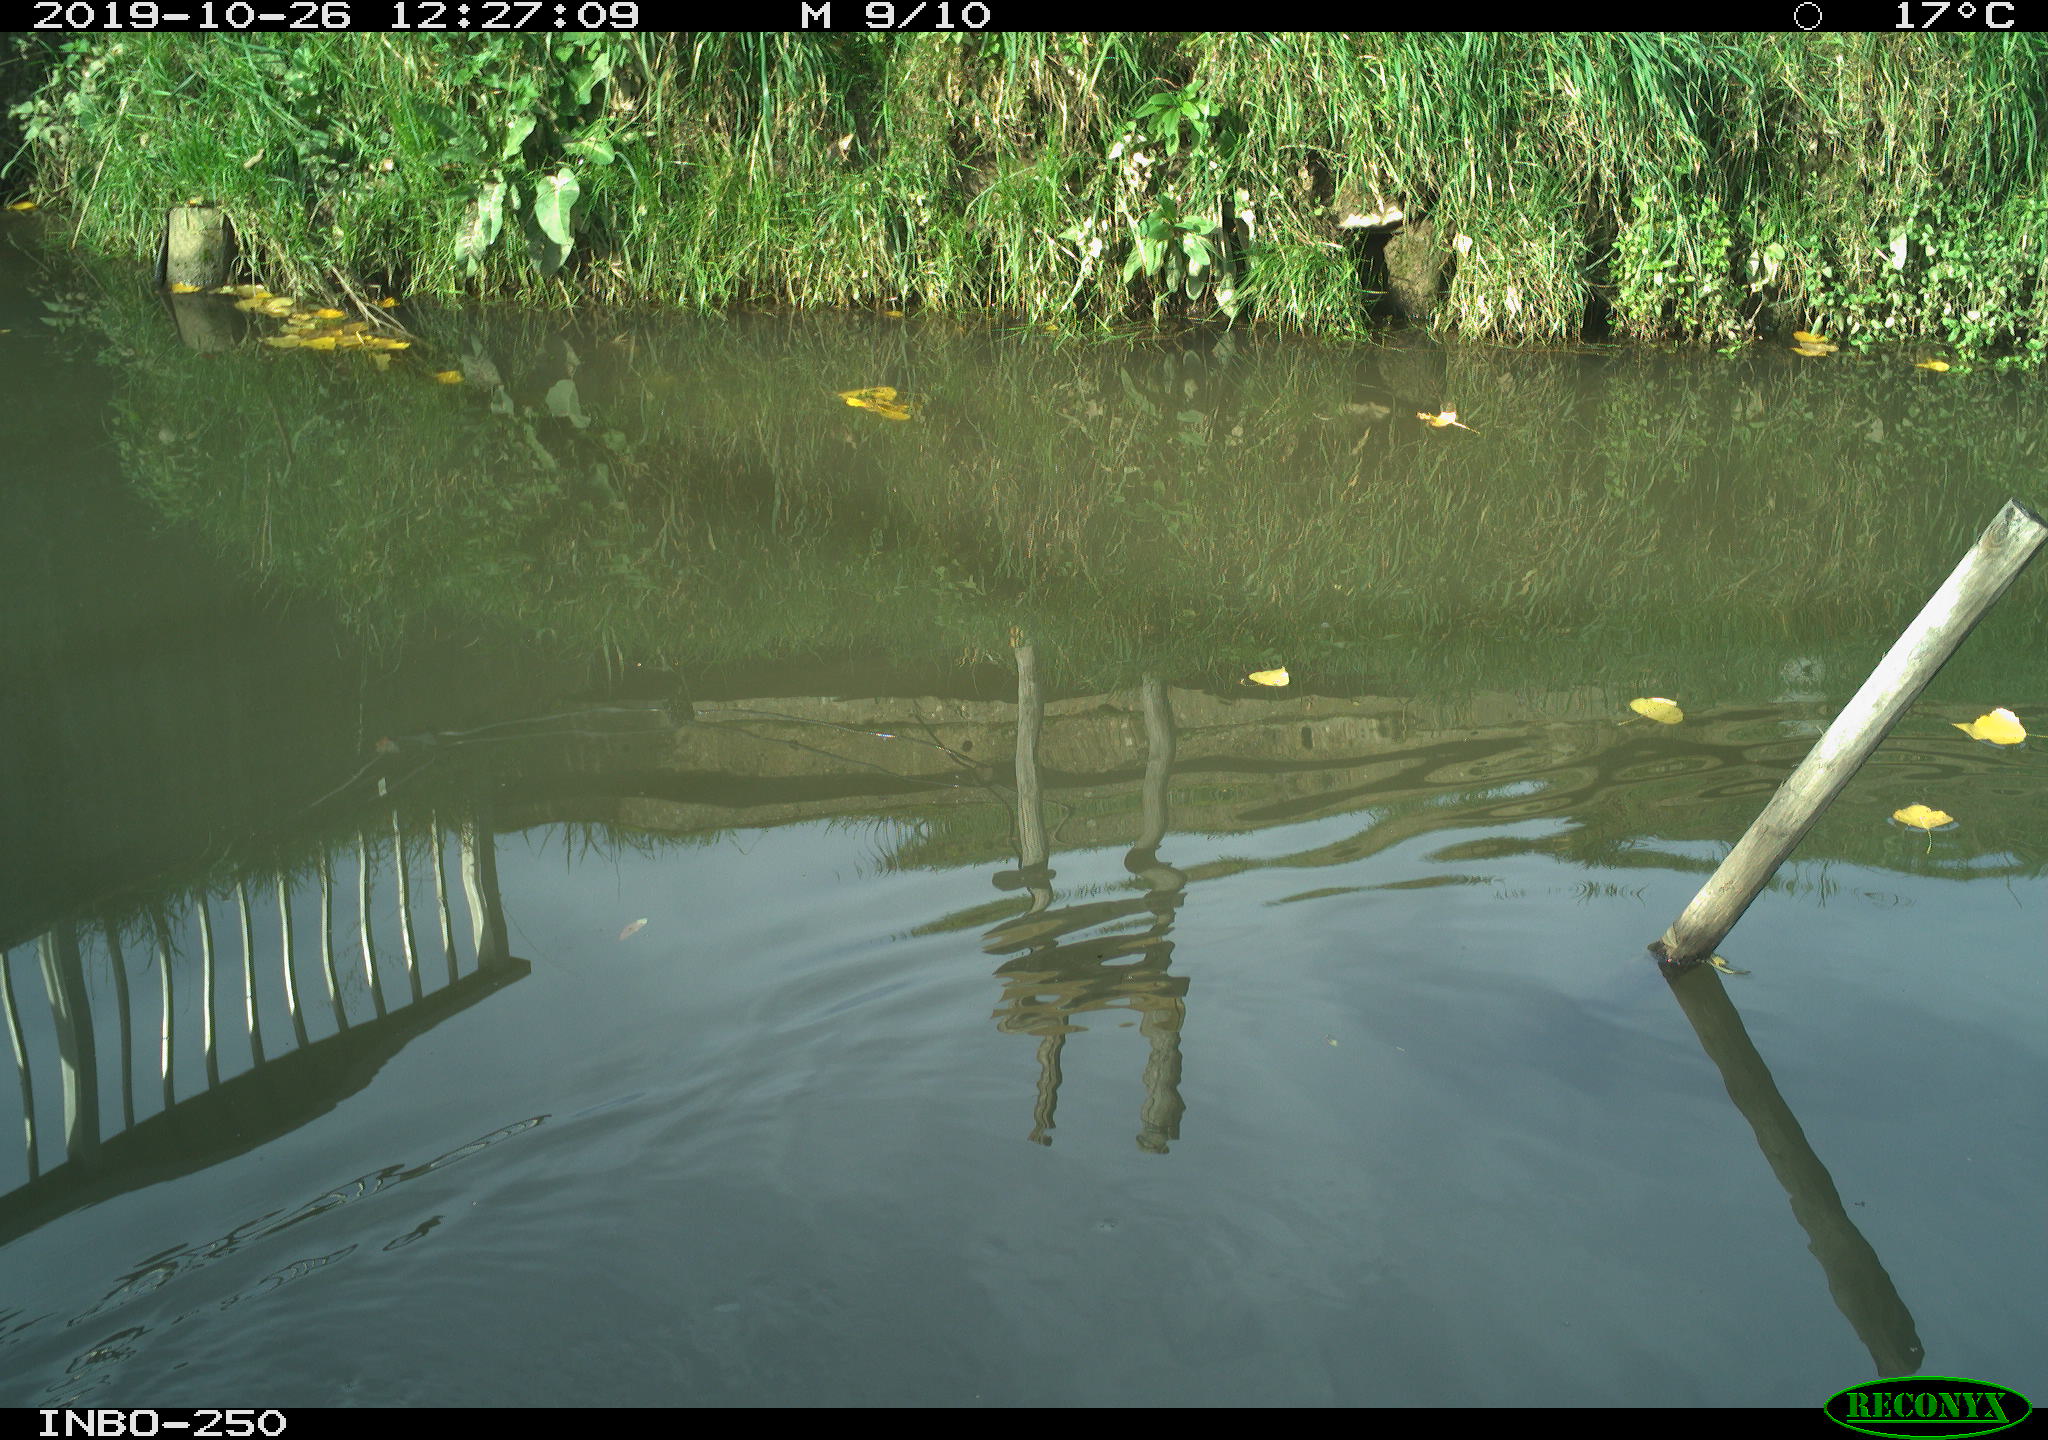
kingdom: Animalia
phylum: Chordata
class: Aves
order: Gruiformes
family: Rallidae
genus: Gallinula
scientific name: Gallinula chloropus
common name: Common moorhen
